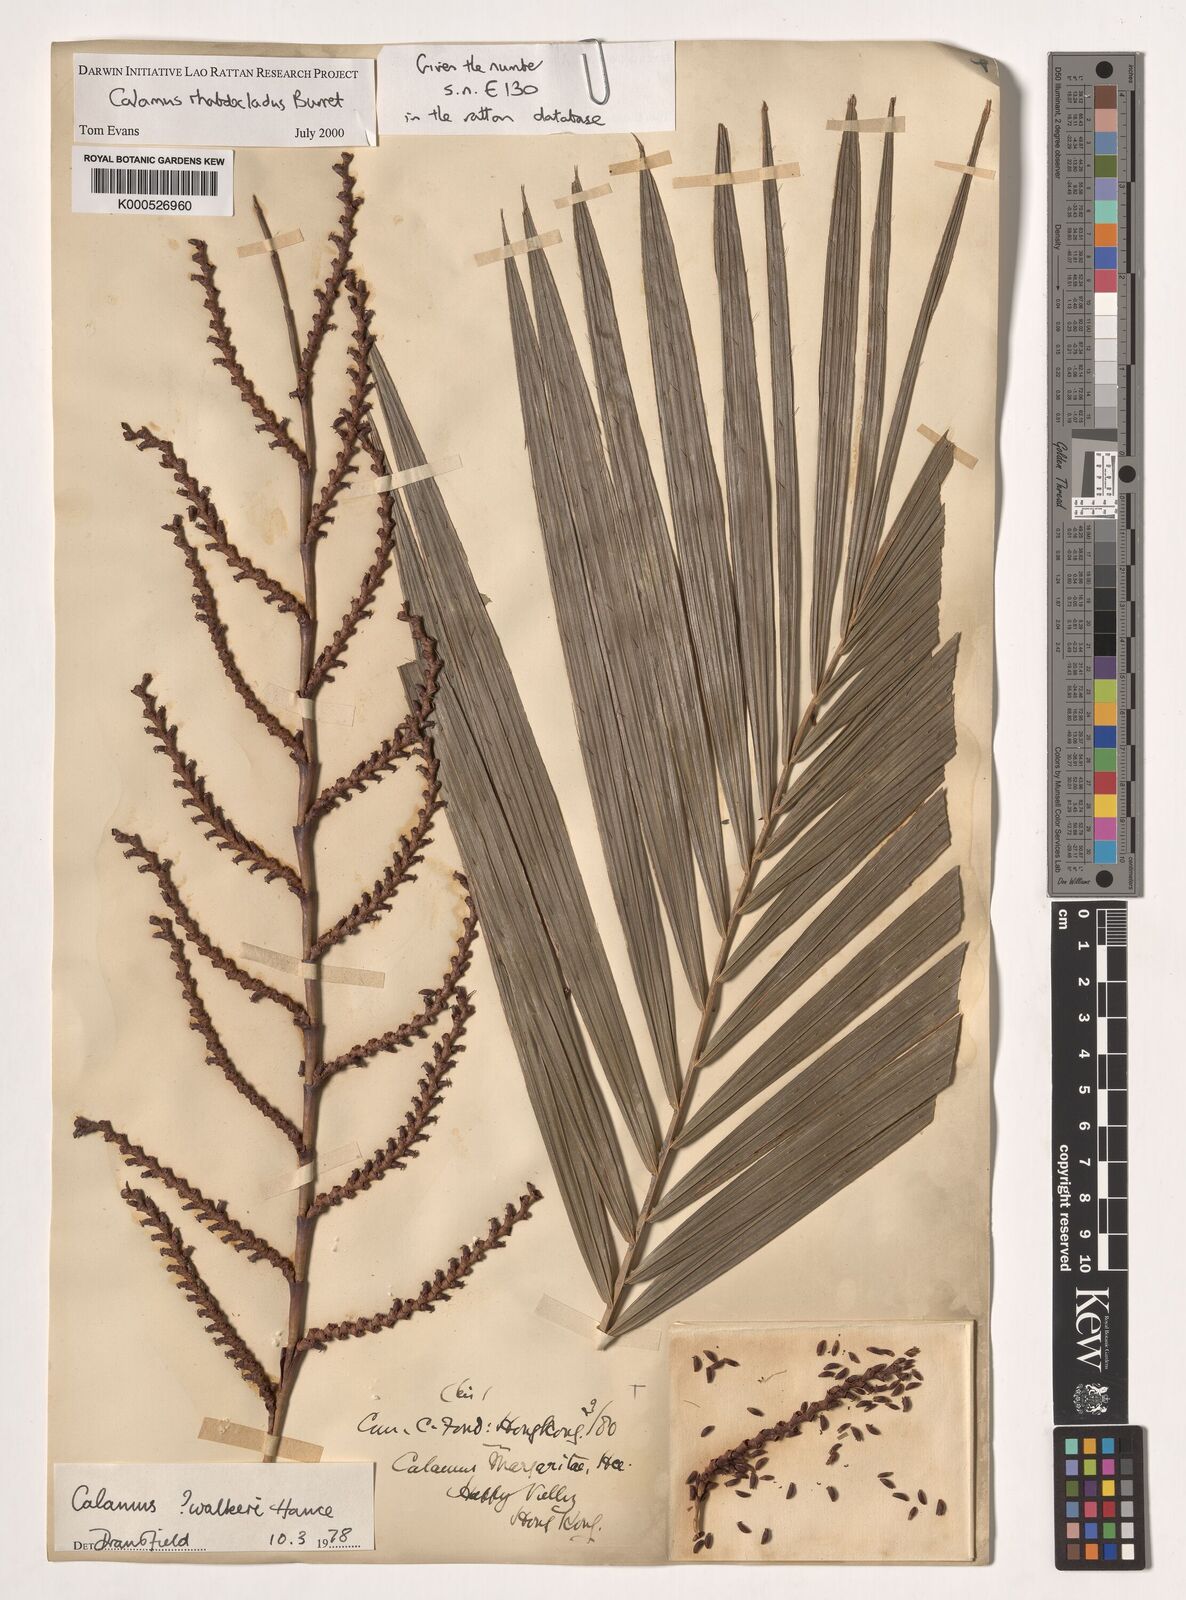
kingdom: Plantae
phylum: Tracheophyta
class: Liliopsida
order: Arecales
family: Arecaceae
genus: Calamus
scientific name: Calamus rhabdocladus
